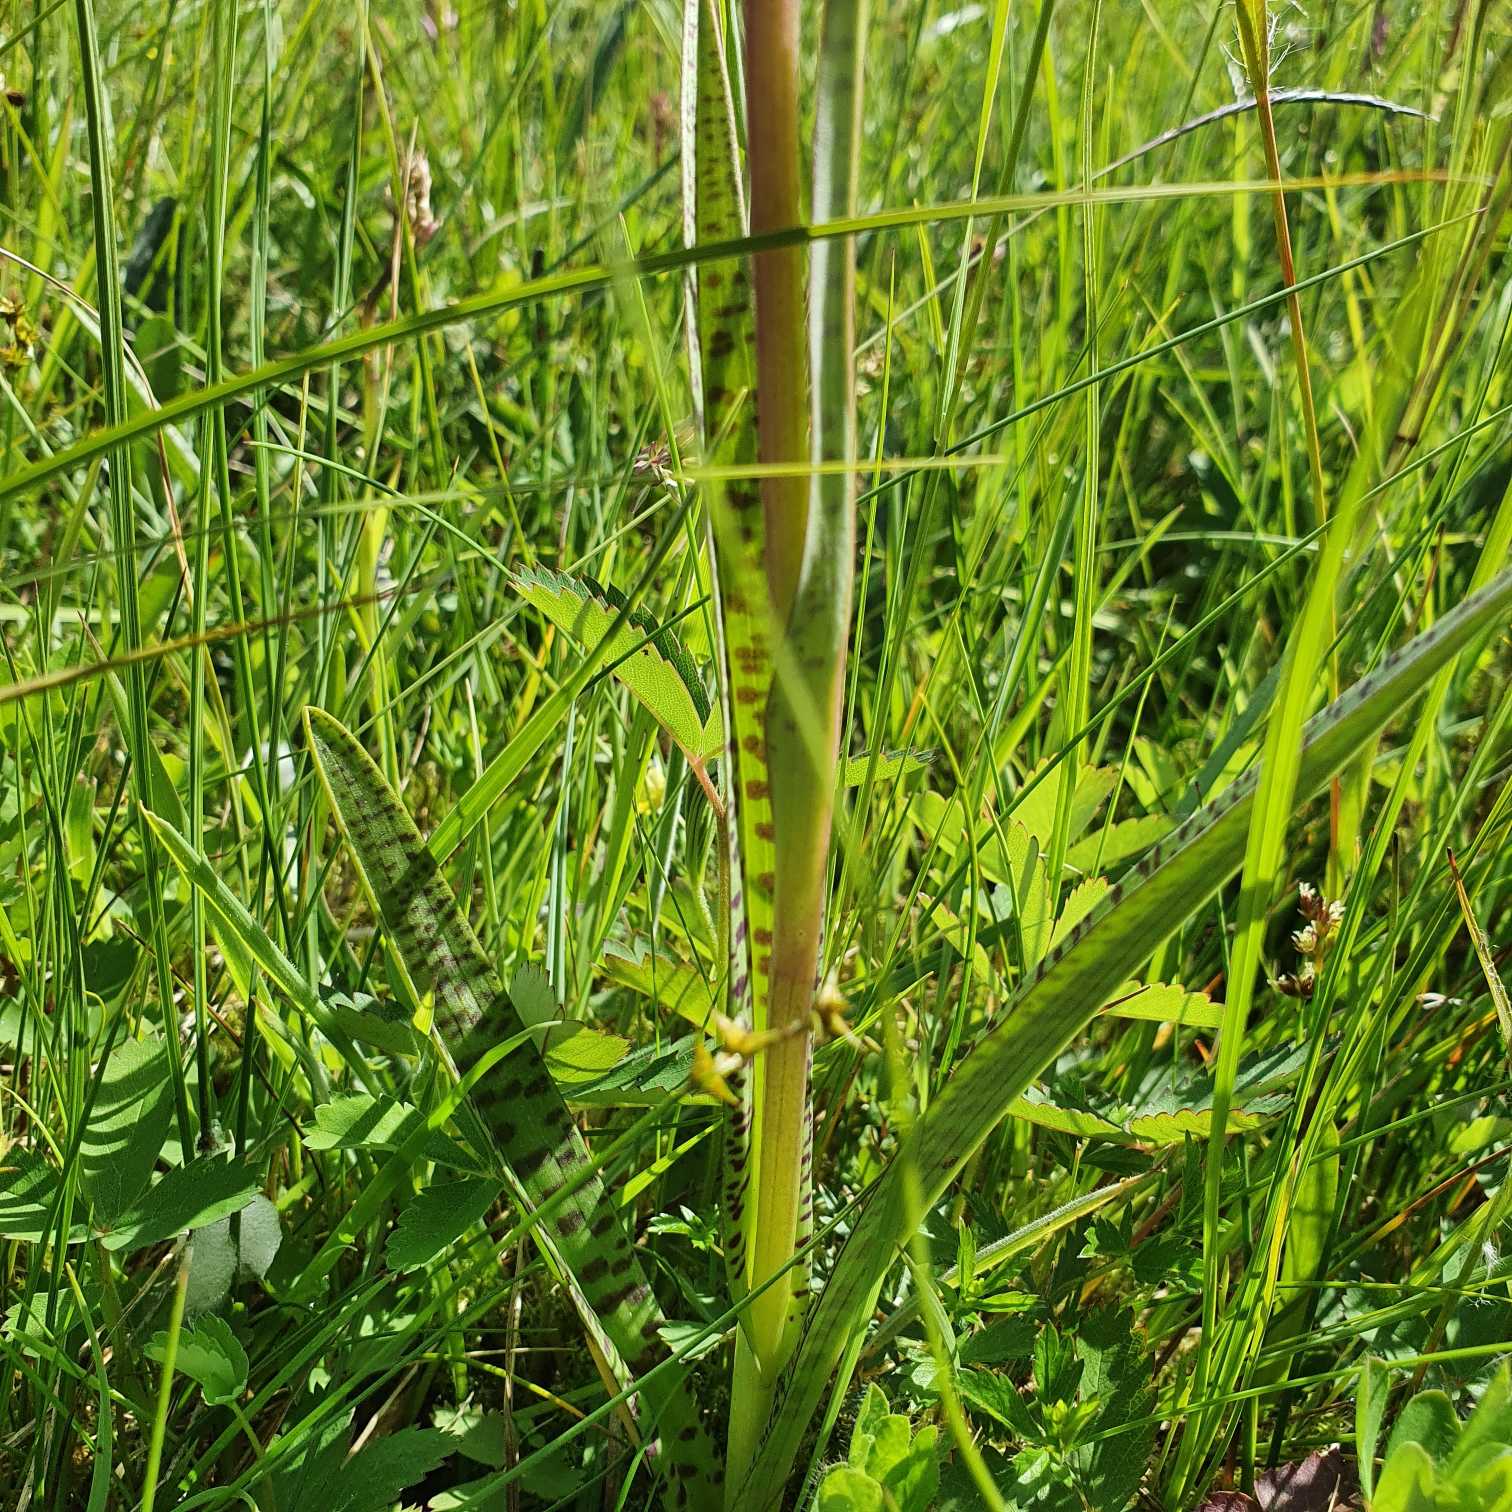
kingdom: Plantae
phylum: Tracheophyta
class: Liliopsida
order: Asparagales
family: Orchidaceae
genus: Dactylorhiza
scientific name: Dactylorhiza maculata
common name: Plettet gøgeurt
